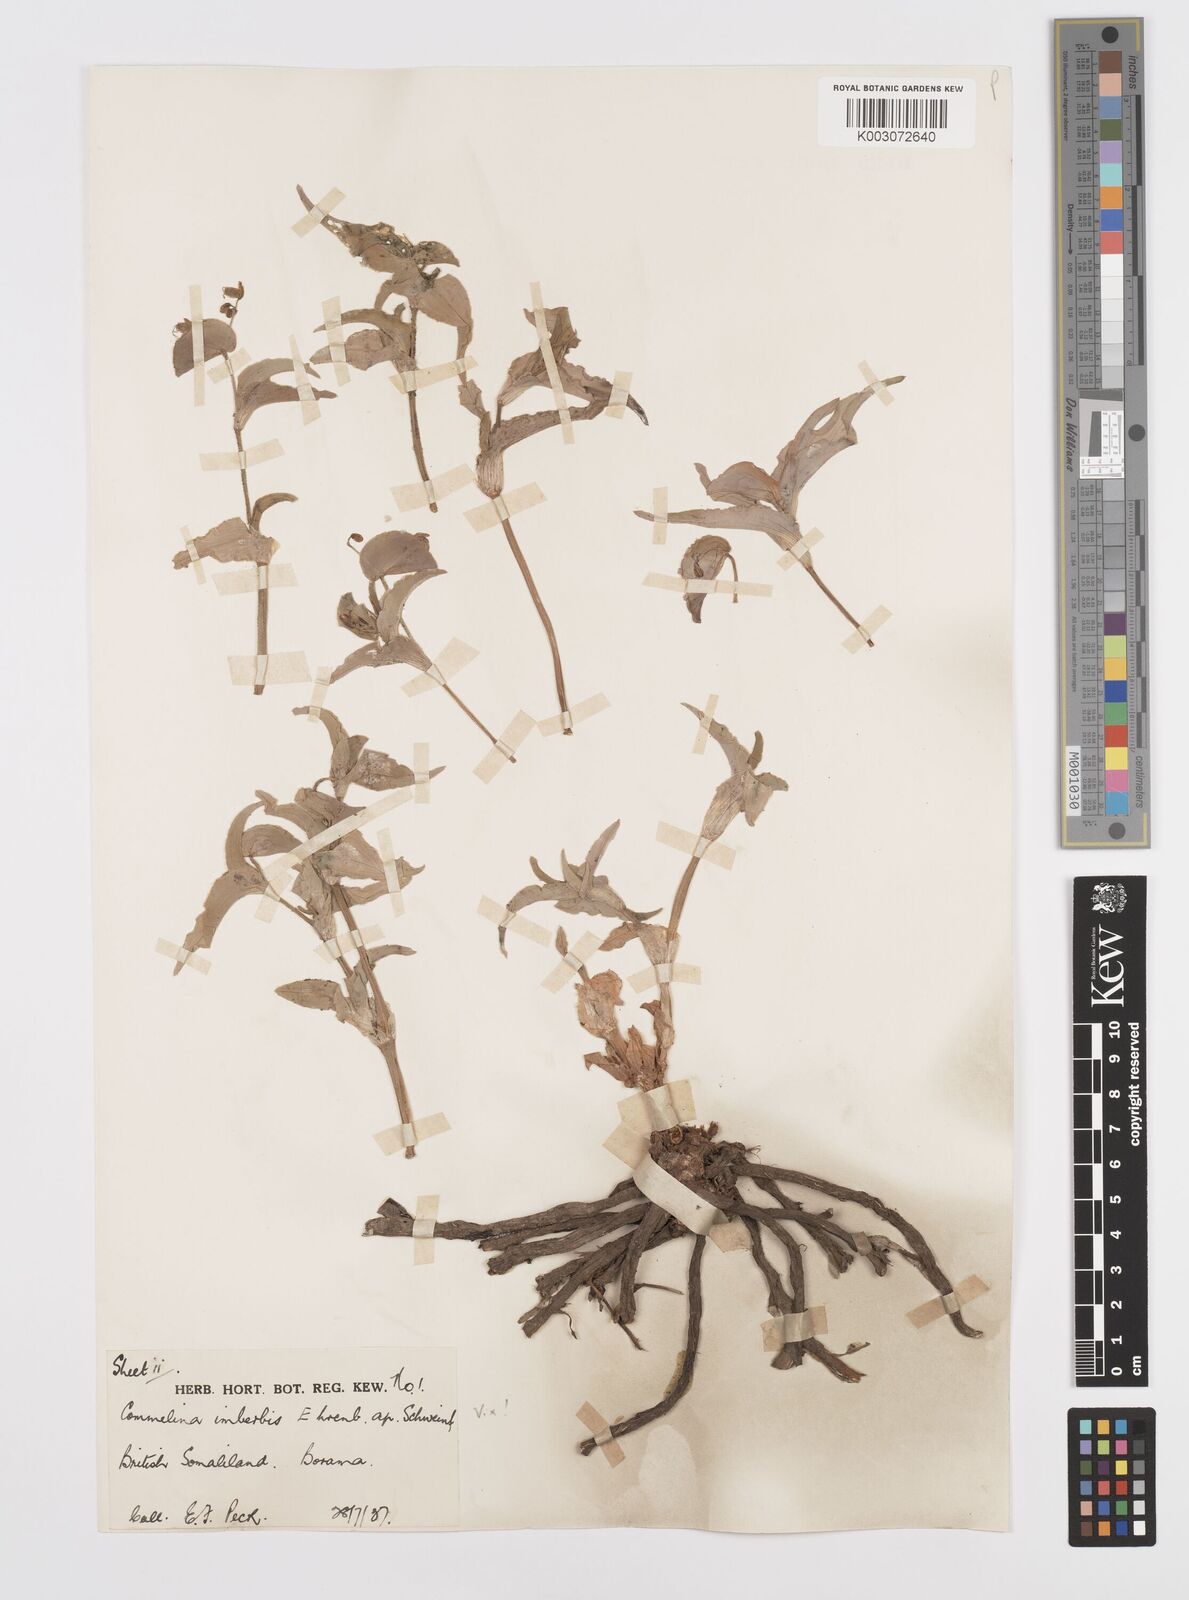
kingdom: Plantae
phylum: Tracheophyta
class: Liliopsida
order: Commelinales
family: Commelinaceae
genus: Commelina
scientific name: Commelina stefaniniana
